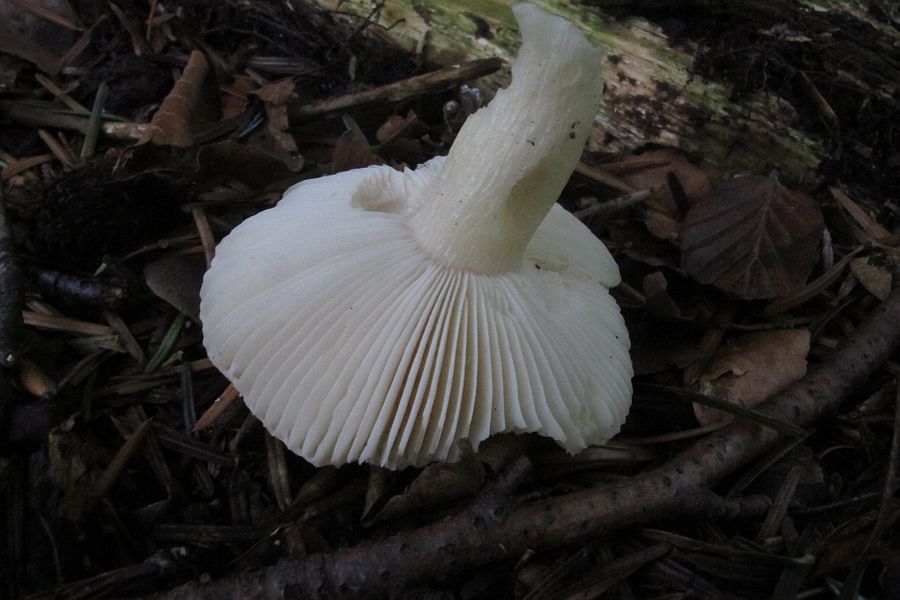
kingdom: Fungi
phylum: Basidiomycota
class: Agaricomycetes
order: Russulales
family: Russulaceae
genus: Russula
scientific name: Russula fellea
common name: galde-skørhat
